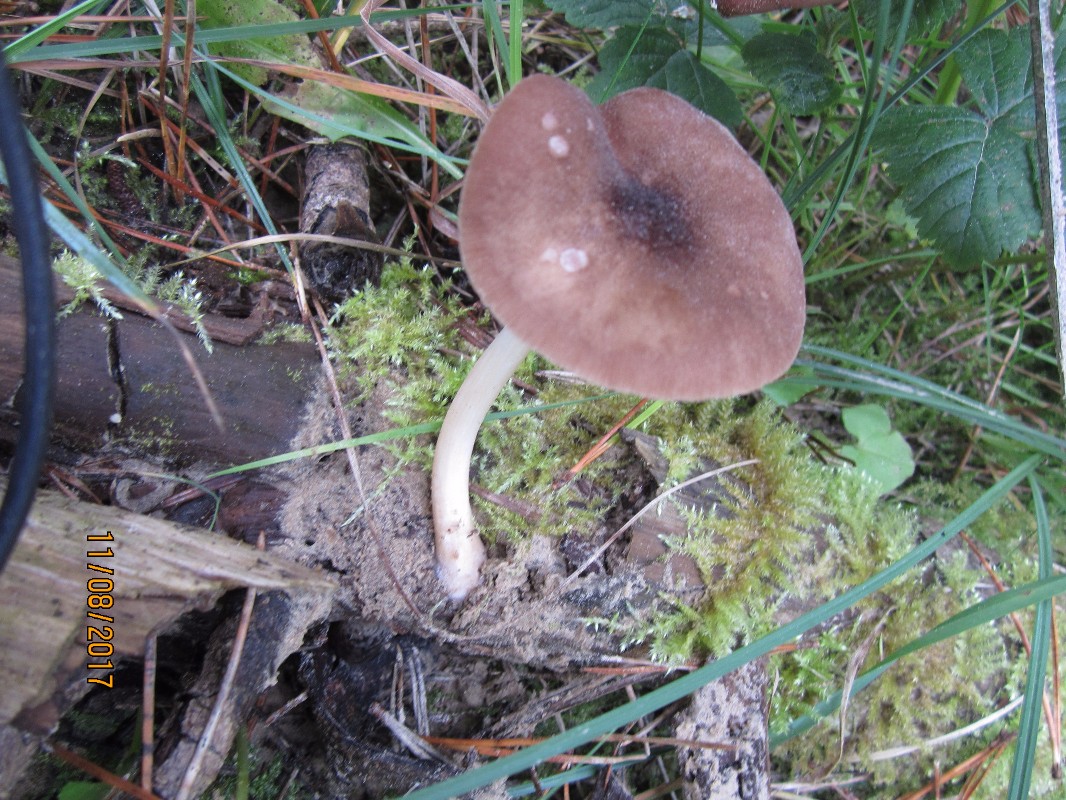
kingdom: Fungi
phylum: Basidiomycota
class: Agaricomycetes
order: Agaricales
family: Pluteaceae
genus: Pluteus
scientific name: Pluteus roseipes
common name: rosafodet skærmhat
